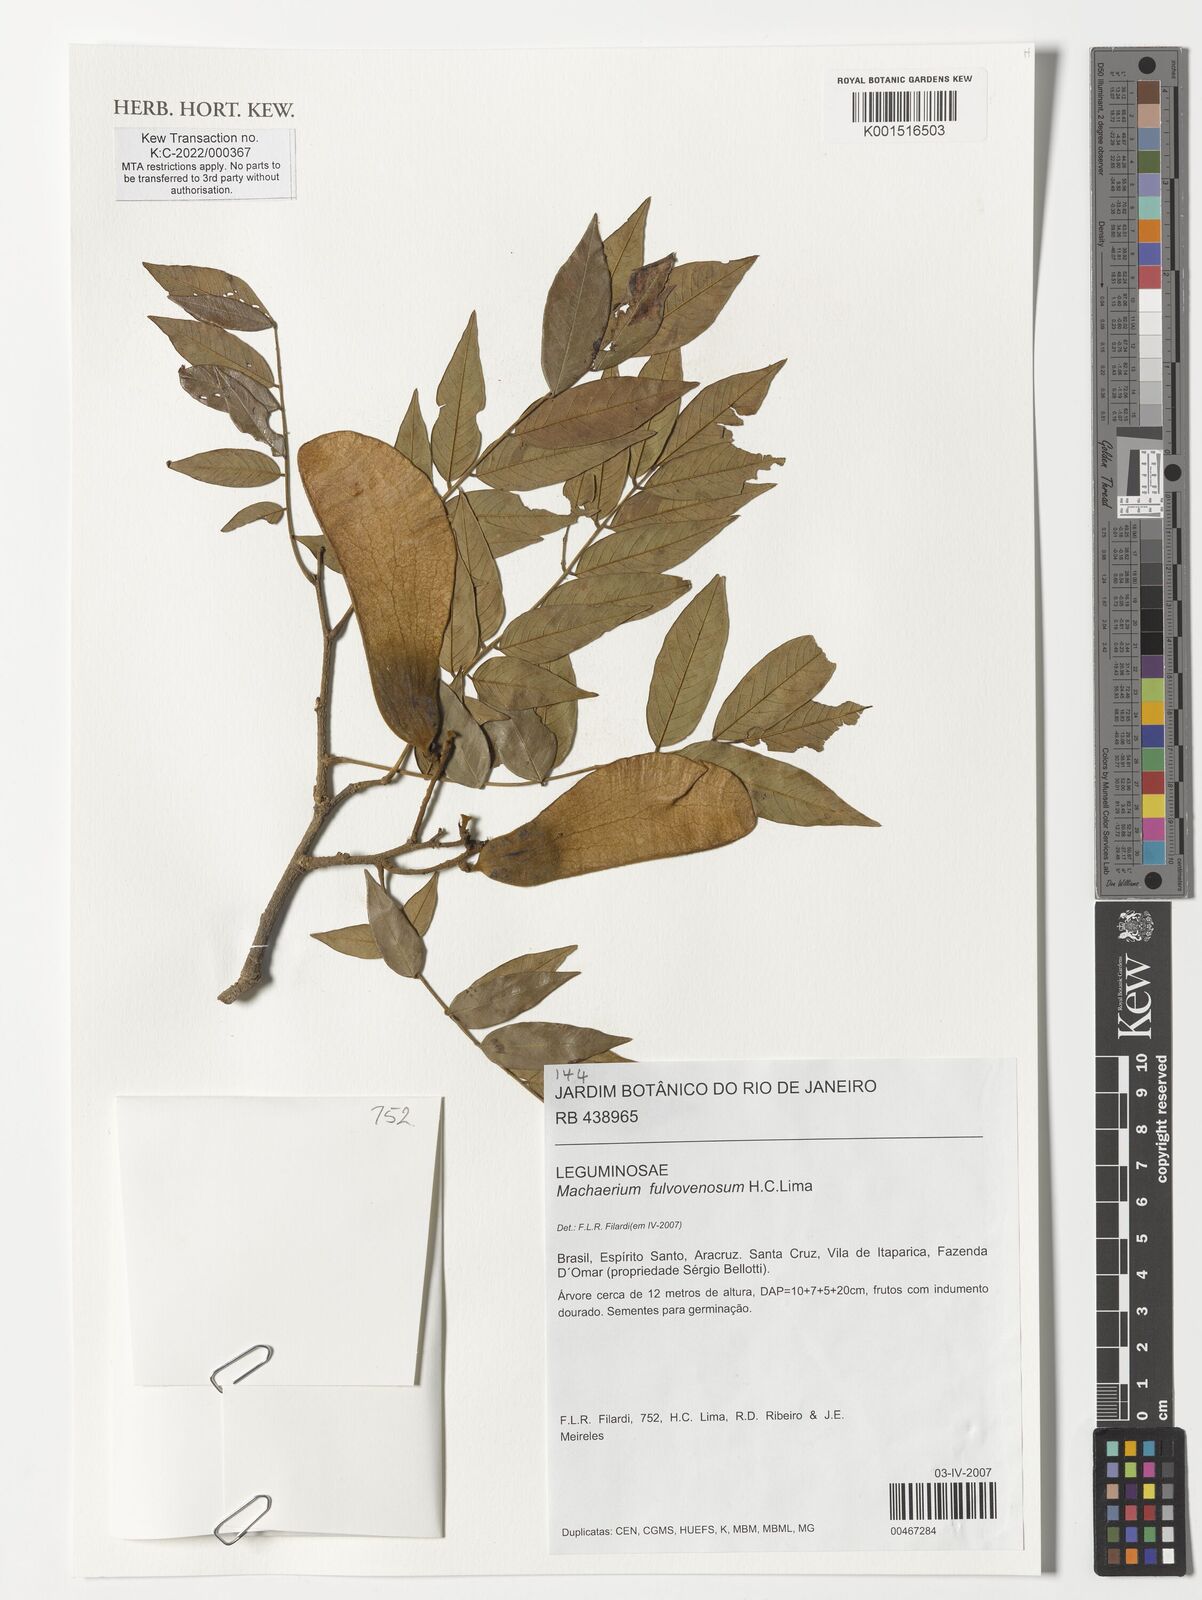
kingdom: Plantae
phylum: Tracheophyta
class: Magnoliopsida
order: Fabales
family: Fabaceae
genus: Machaerium
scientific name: Machaerium fulvovenosum
